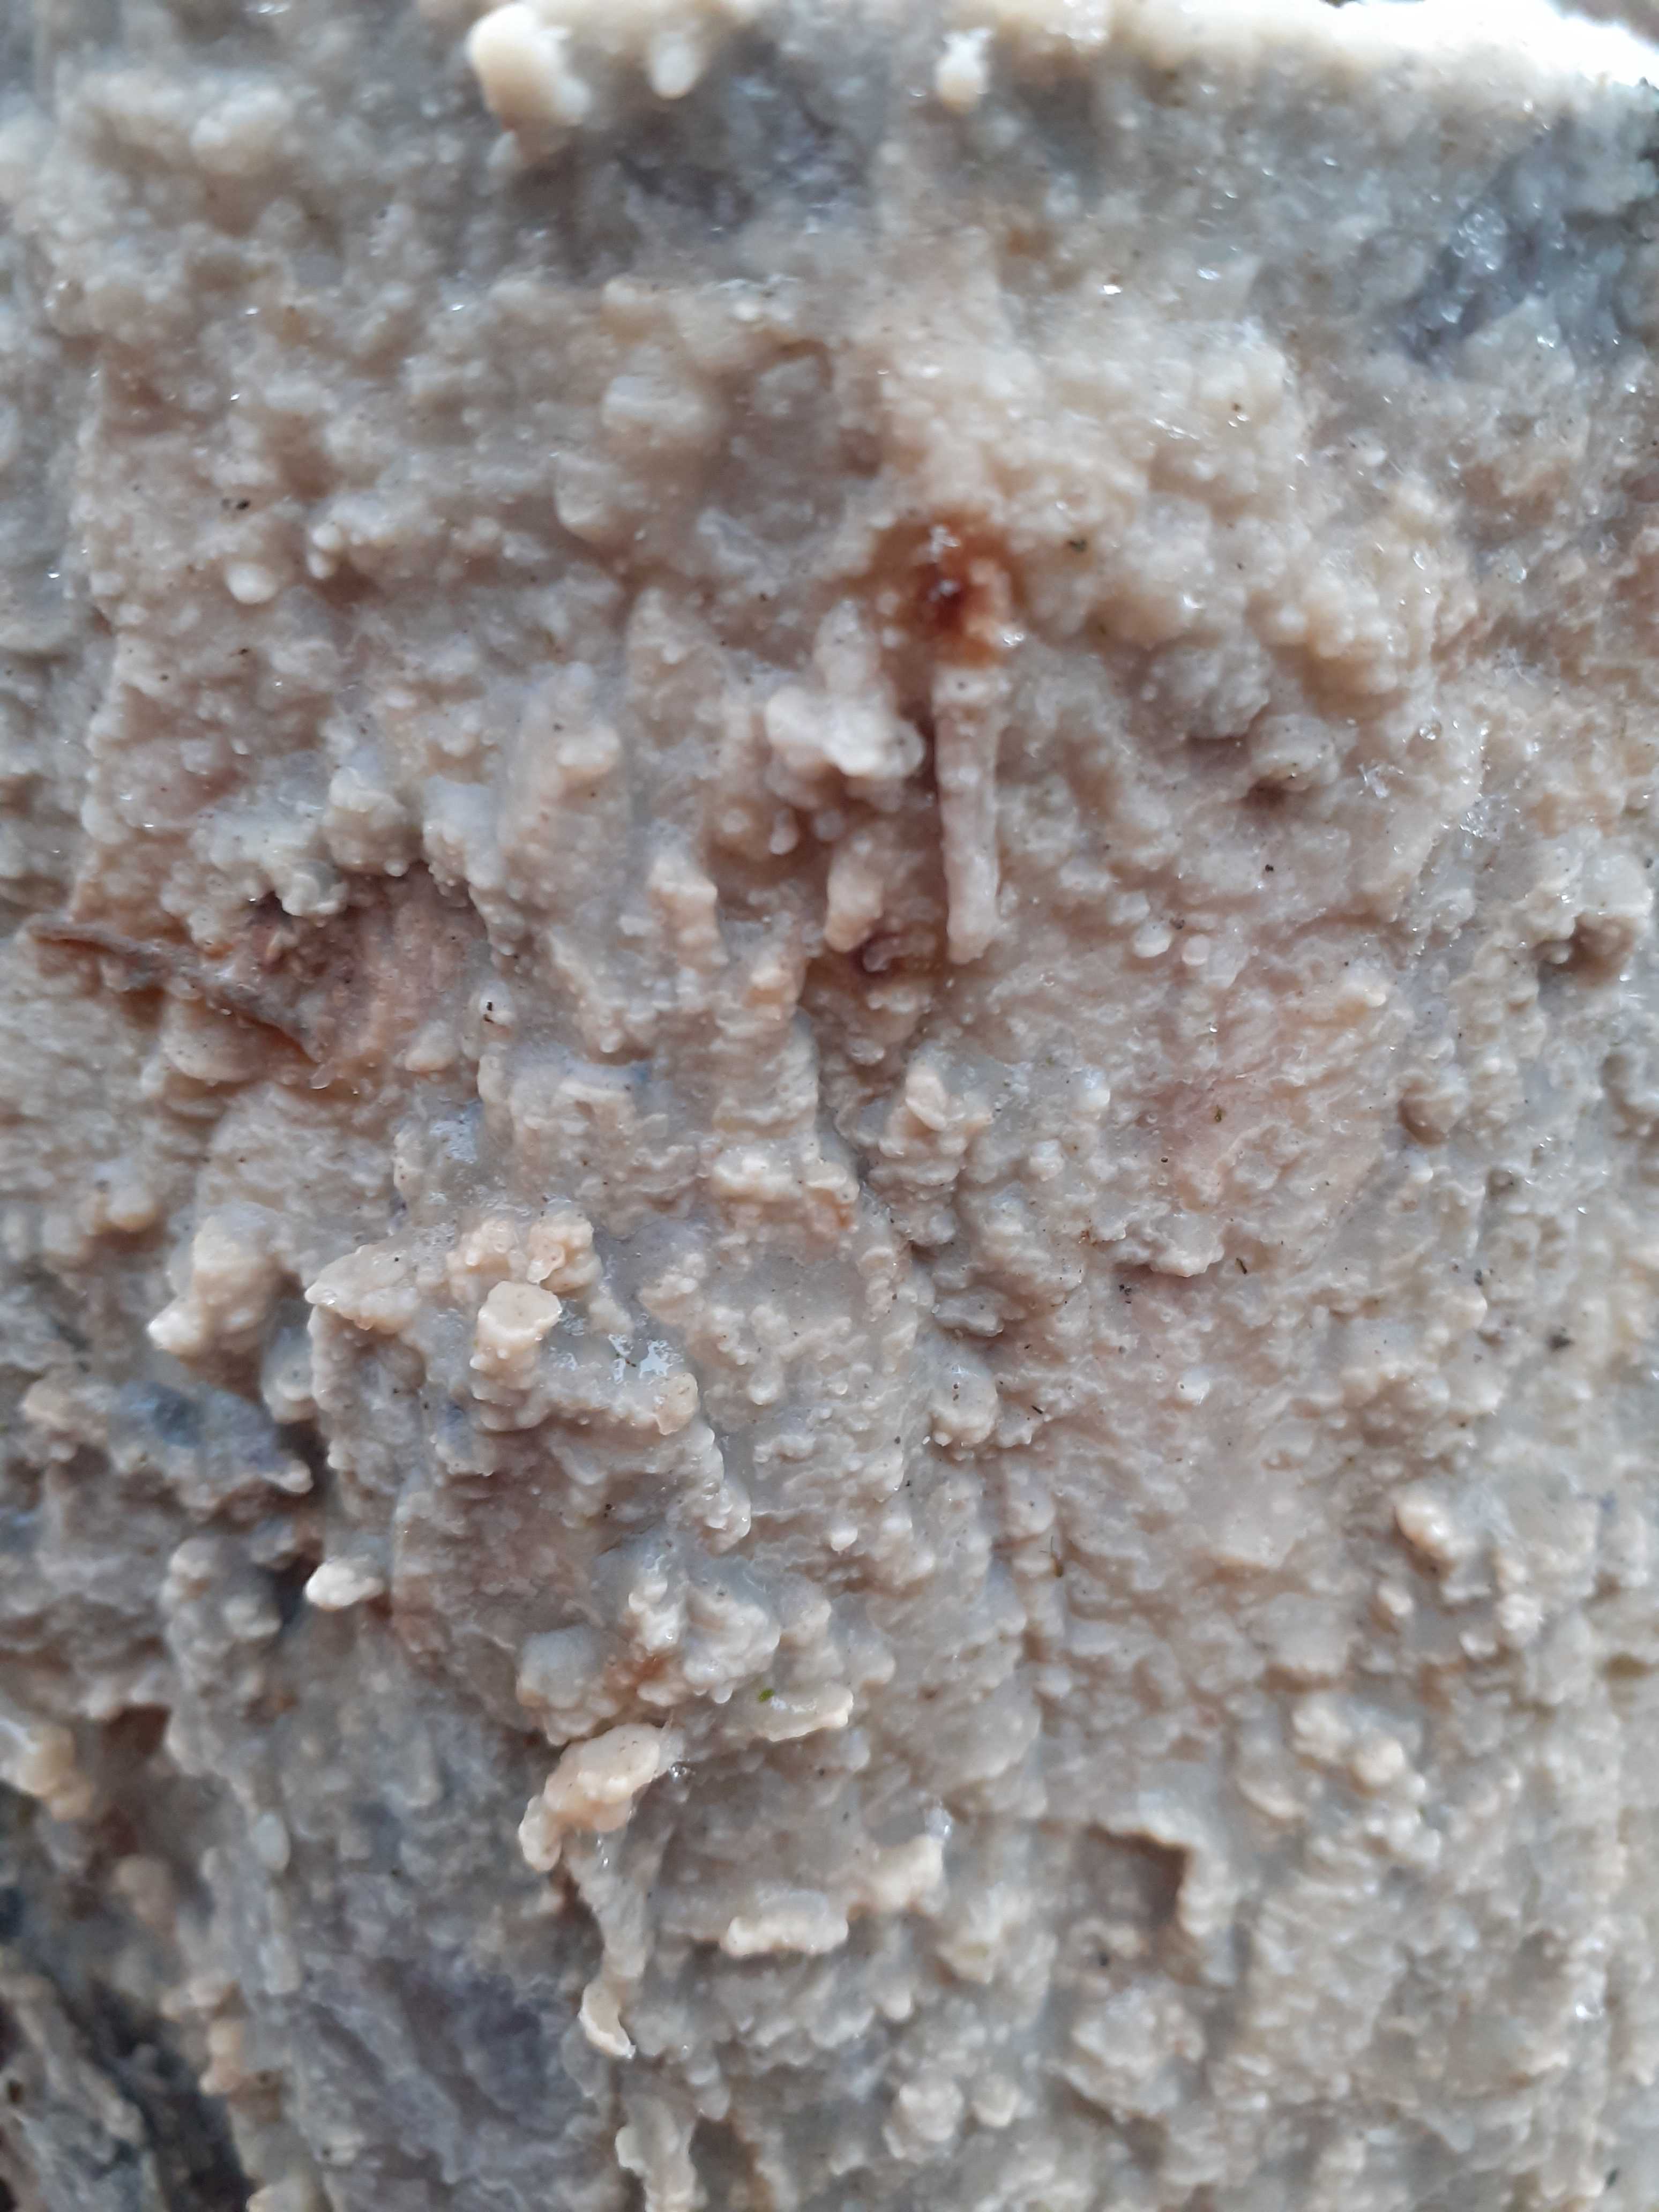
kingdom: Fungi
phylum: Basidiomycota
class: Agaricomycetes
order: Polyporales
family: Phanerochaetaceae
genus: Phlebiopsis
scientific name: Phlebiopsis gigantea
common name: kæmpebarksvamp
